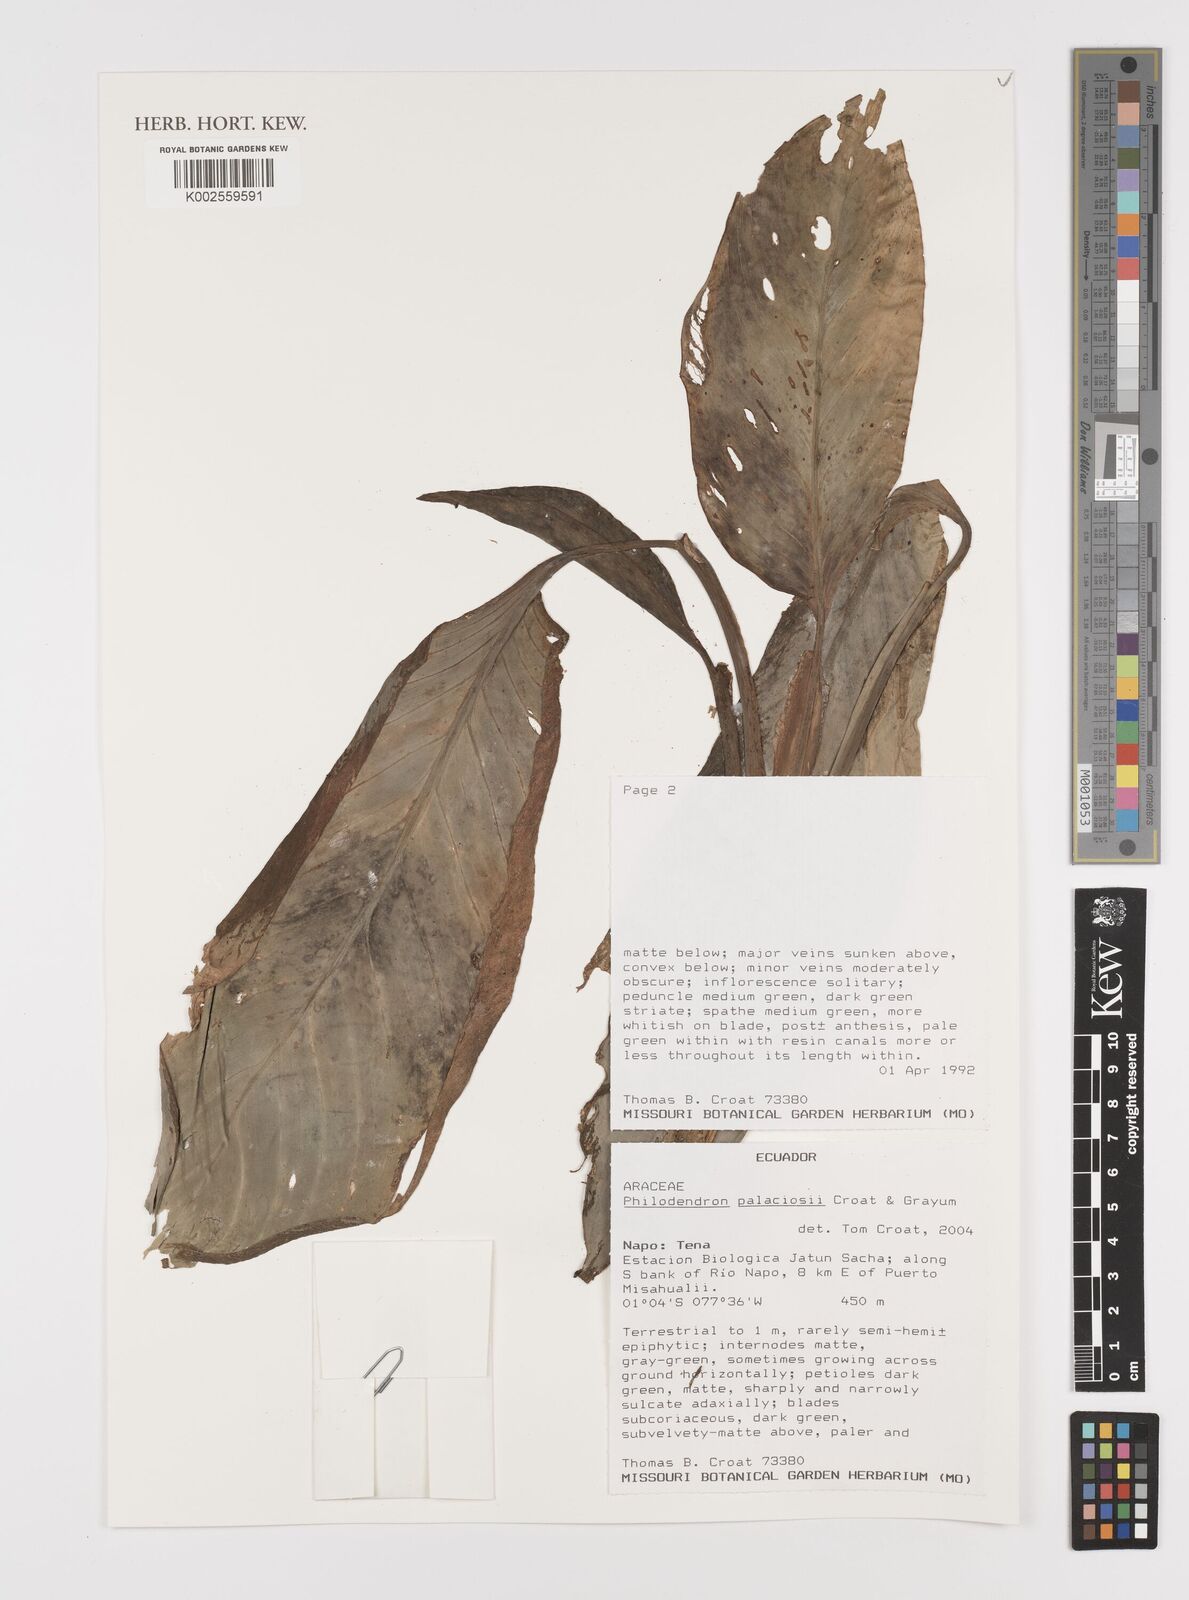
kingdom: Plantae
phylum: Tracheophyta
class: Liliopsida
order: Alismatales
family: Araceae
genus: Philodendron
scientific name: Philodendron palaciosii
